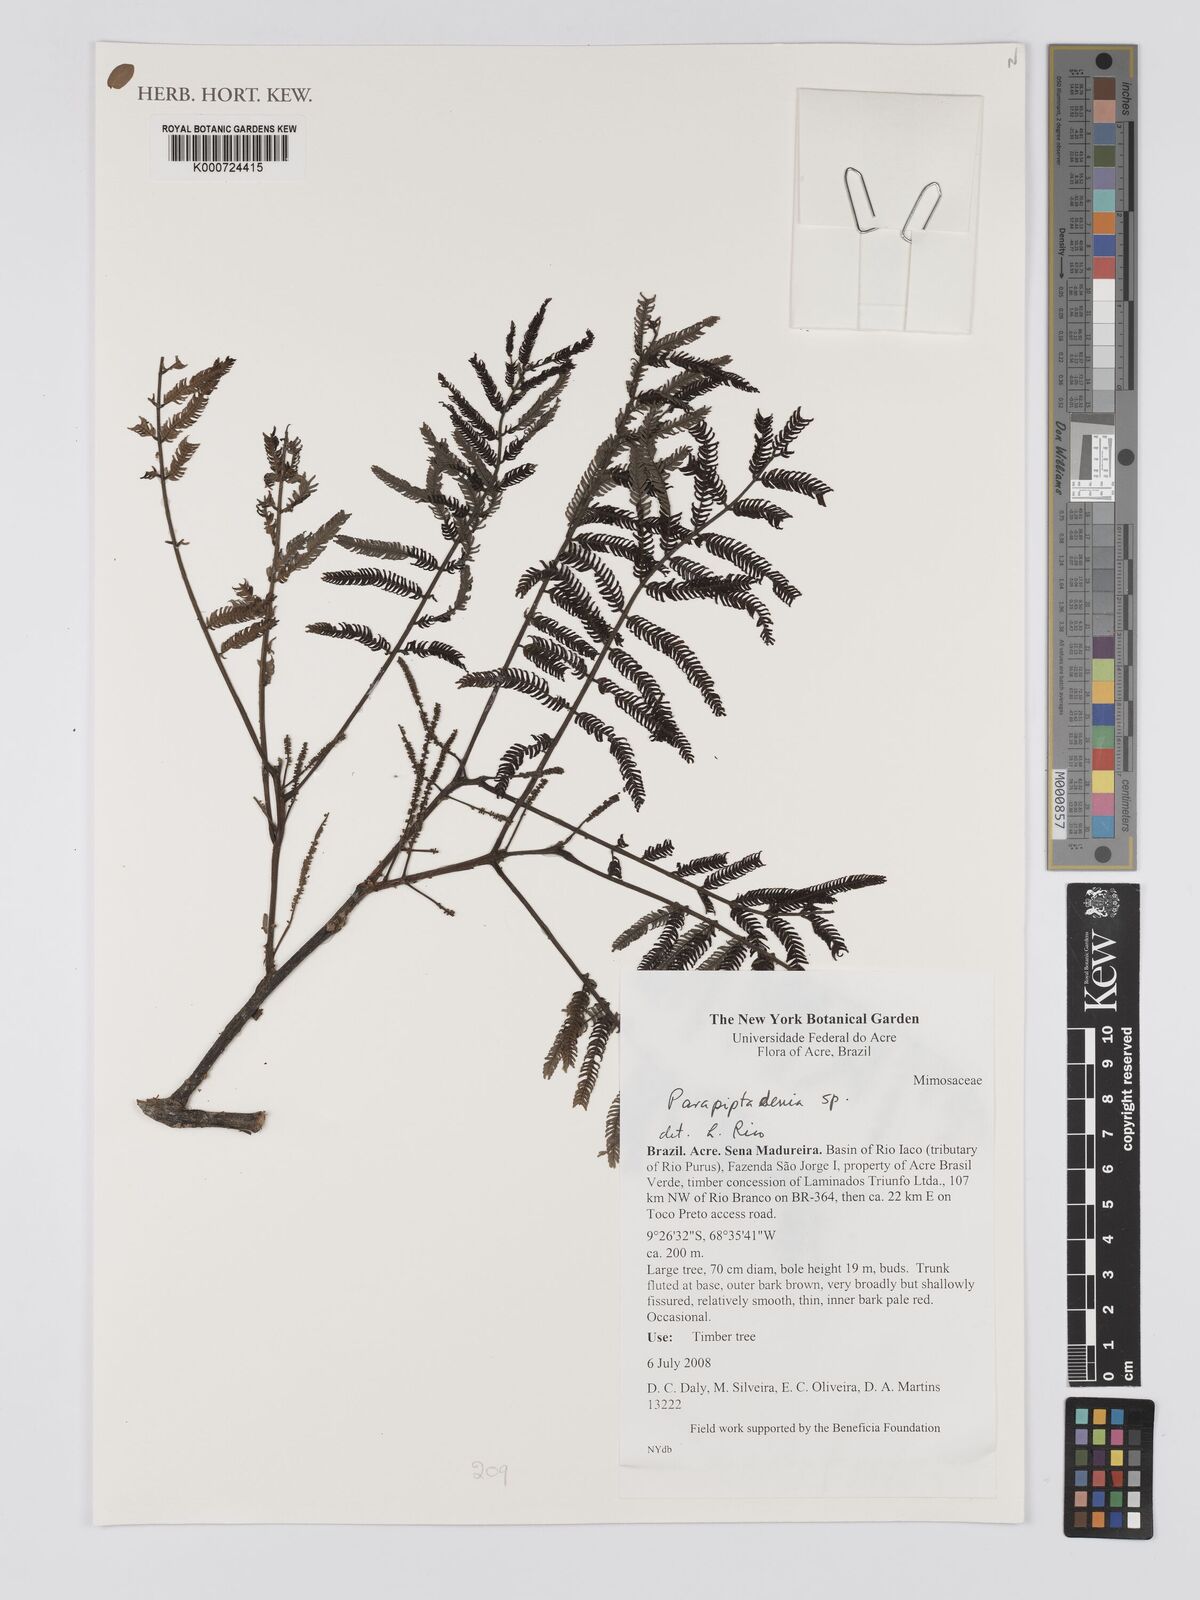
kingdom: Plantae
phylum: Tracheophyta
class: Magnoliopsida
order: Fabales
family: Fabaceae
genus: Parapiptadenia
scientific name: Parapiptadenia
